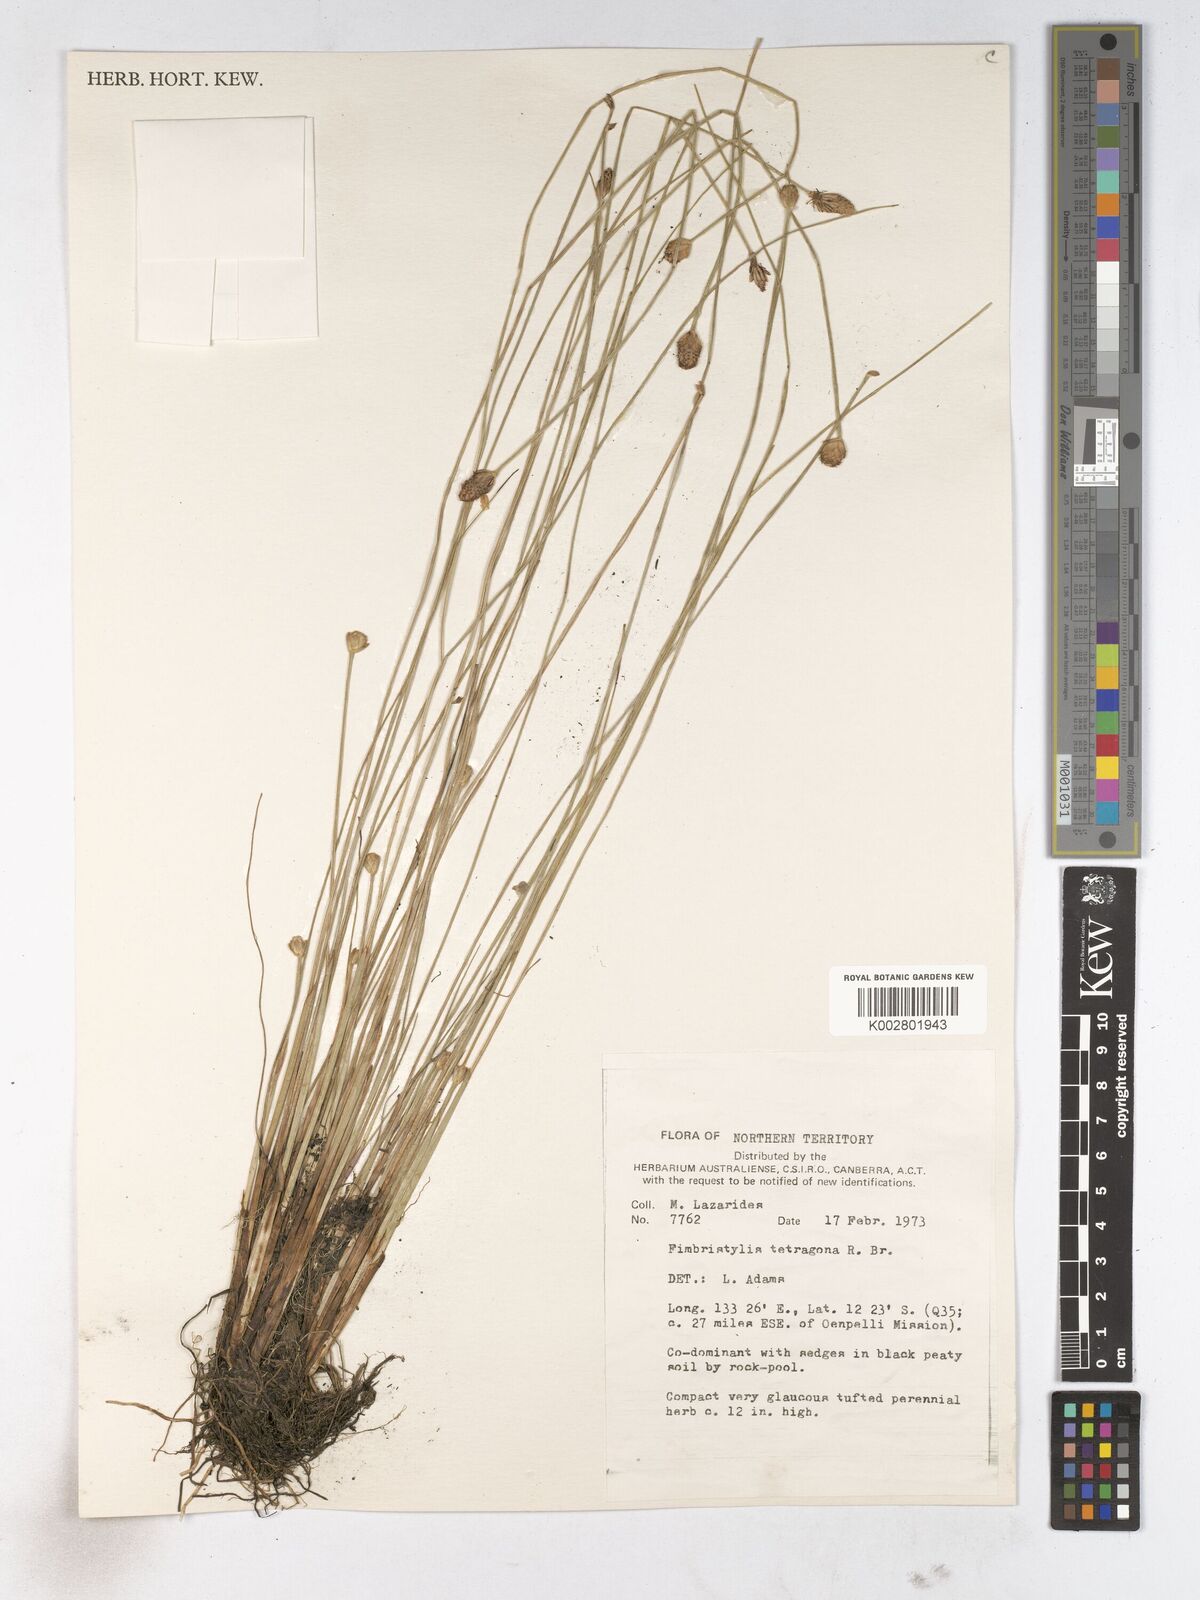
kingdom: Plantae
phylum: Tracheophyta
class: Liliopsida
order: Poales
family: Cyperaceae
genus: Fimbristylis
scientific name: Fimbristylis tetragona
